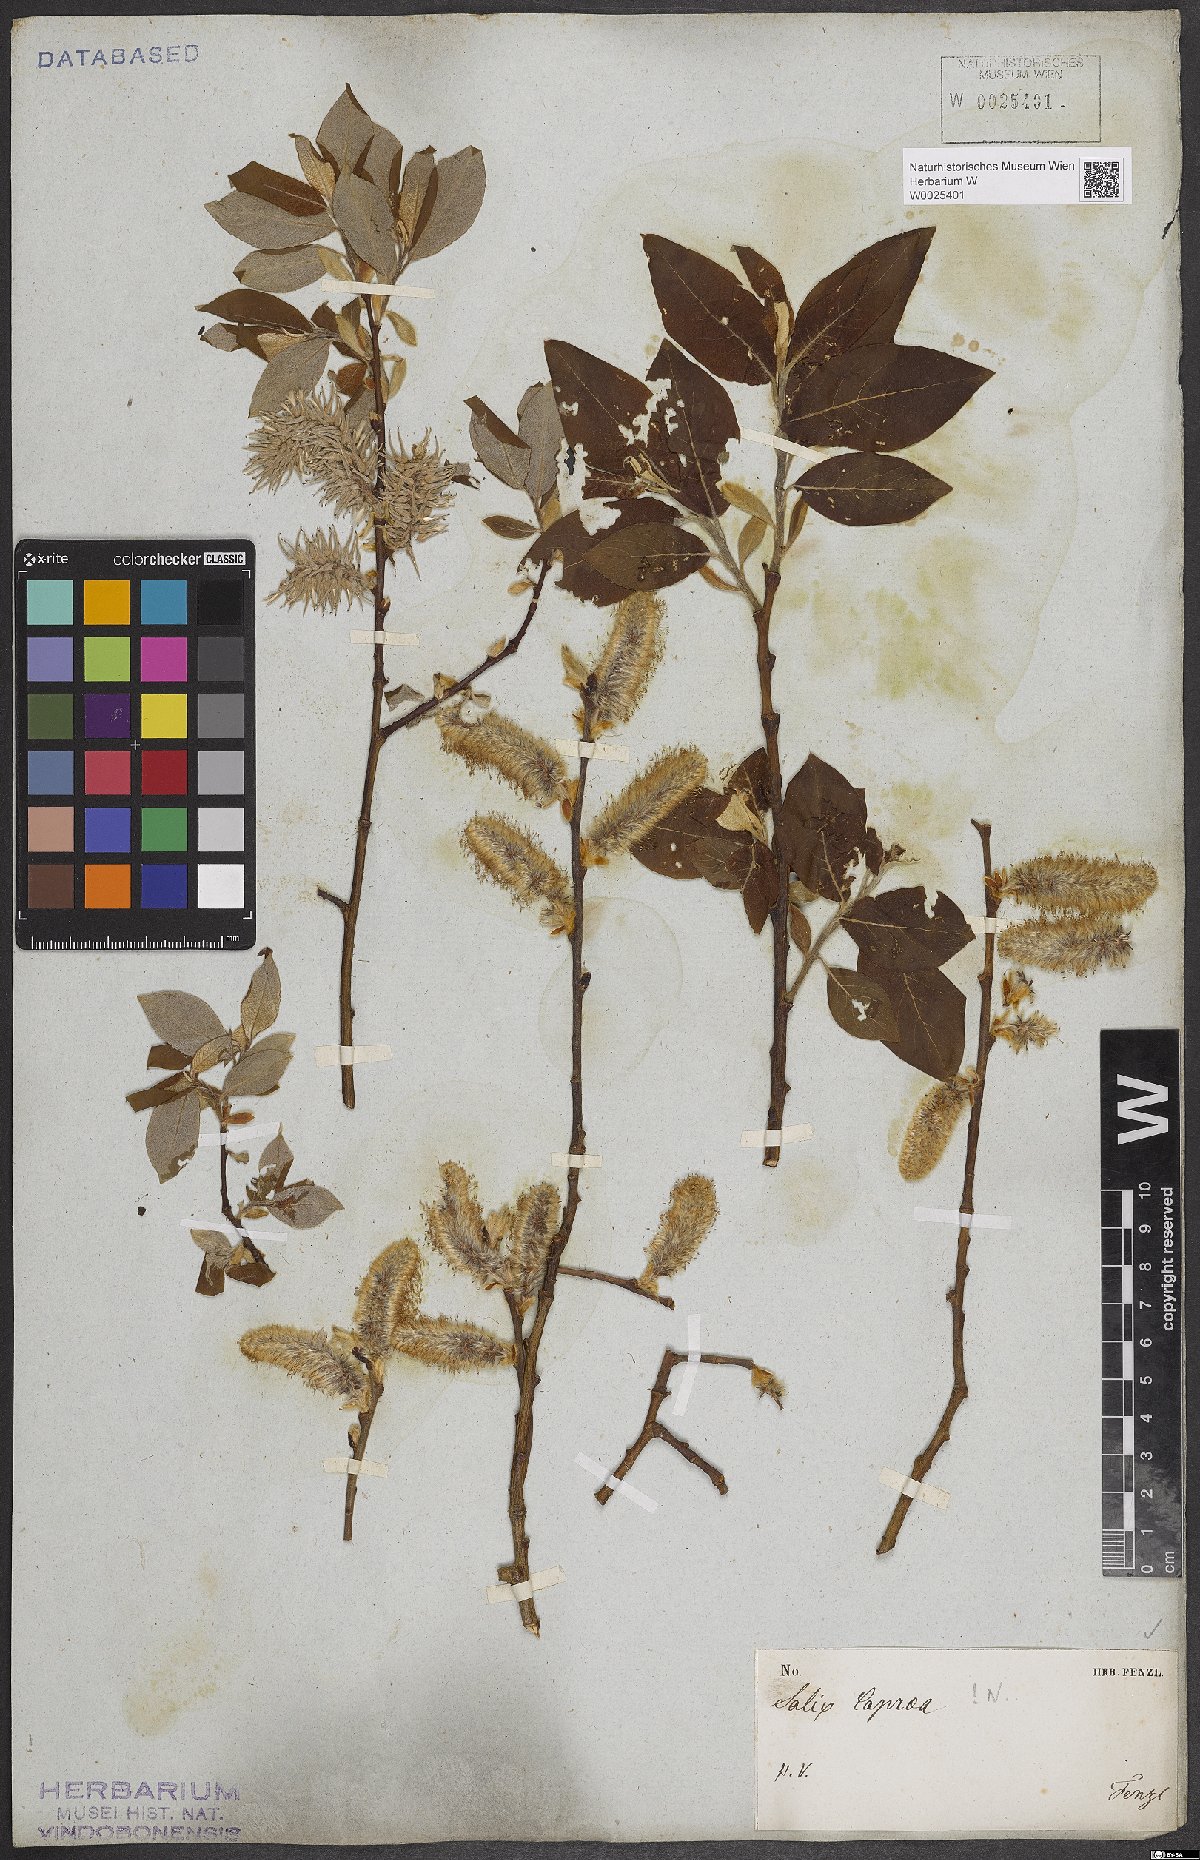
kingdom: Plantae
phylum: Tracheophyta
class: Magnoliopsida
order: Malpighiales
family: Salicaceae
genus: Salix
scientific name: Salix caprea
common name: Goat willow
